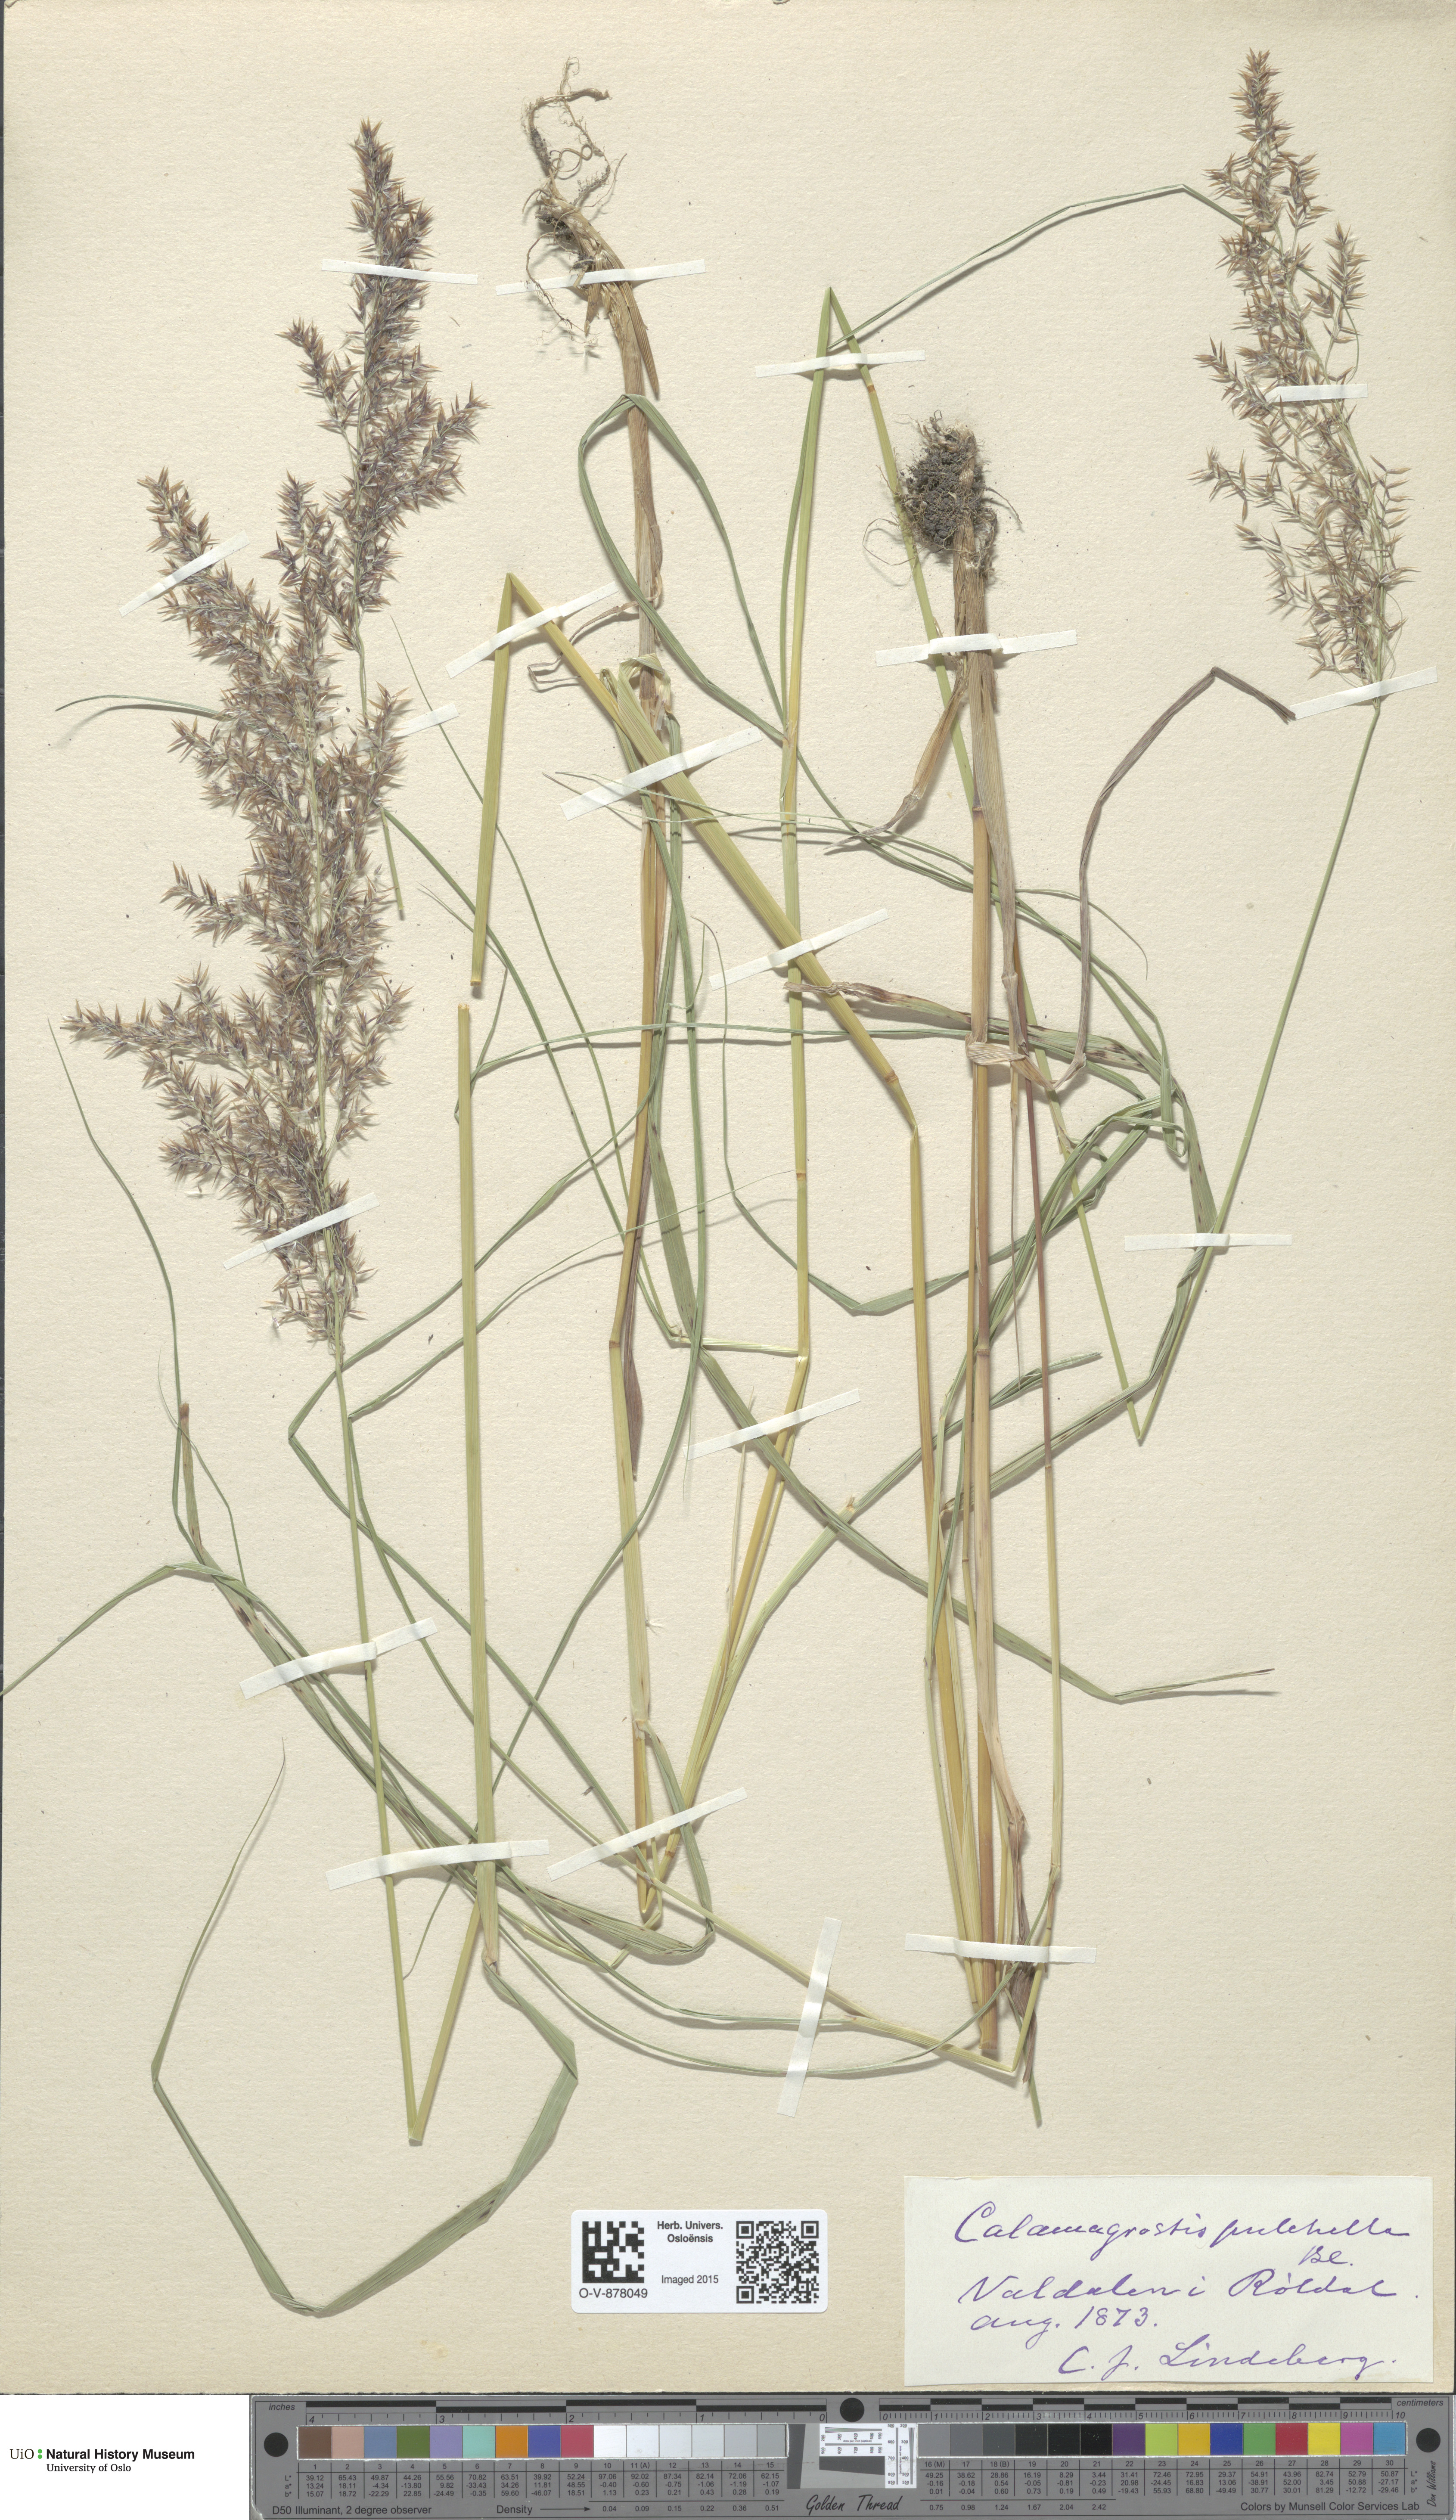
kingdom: Plantae
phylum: Tracheophyta
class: Liliopsida
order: Poales
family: Poaceae
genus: Calamagrostis
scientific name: Calamagrostis purpurea
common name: Scandinavian small-reed
